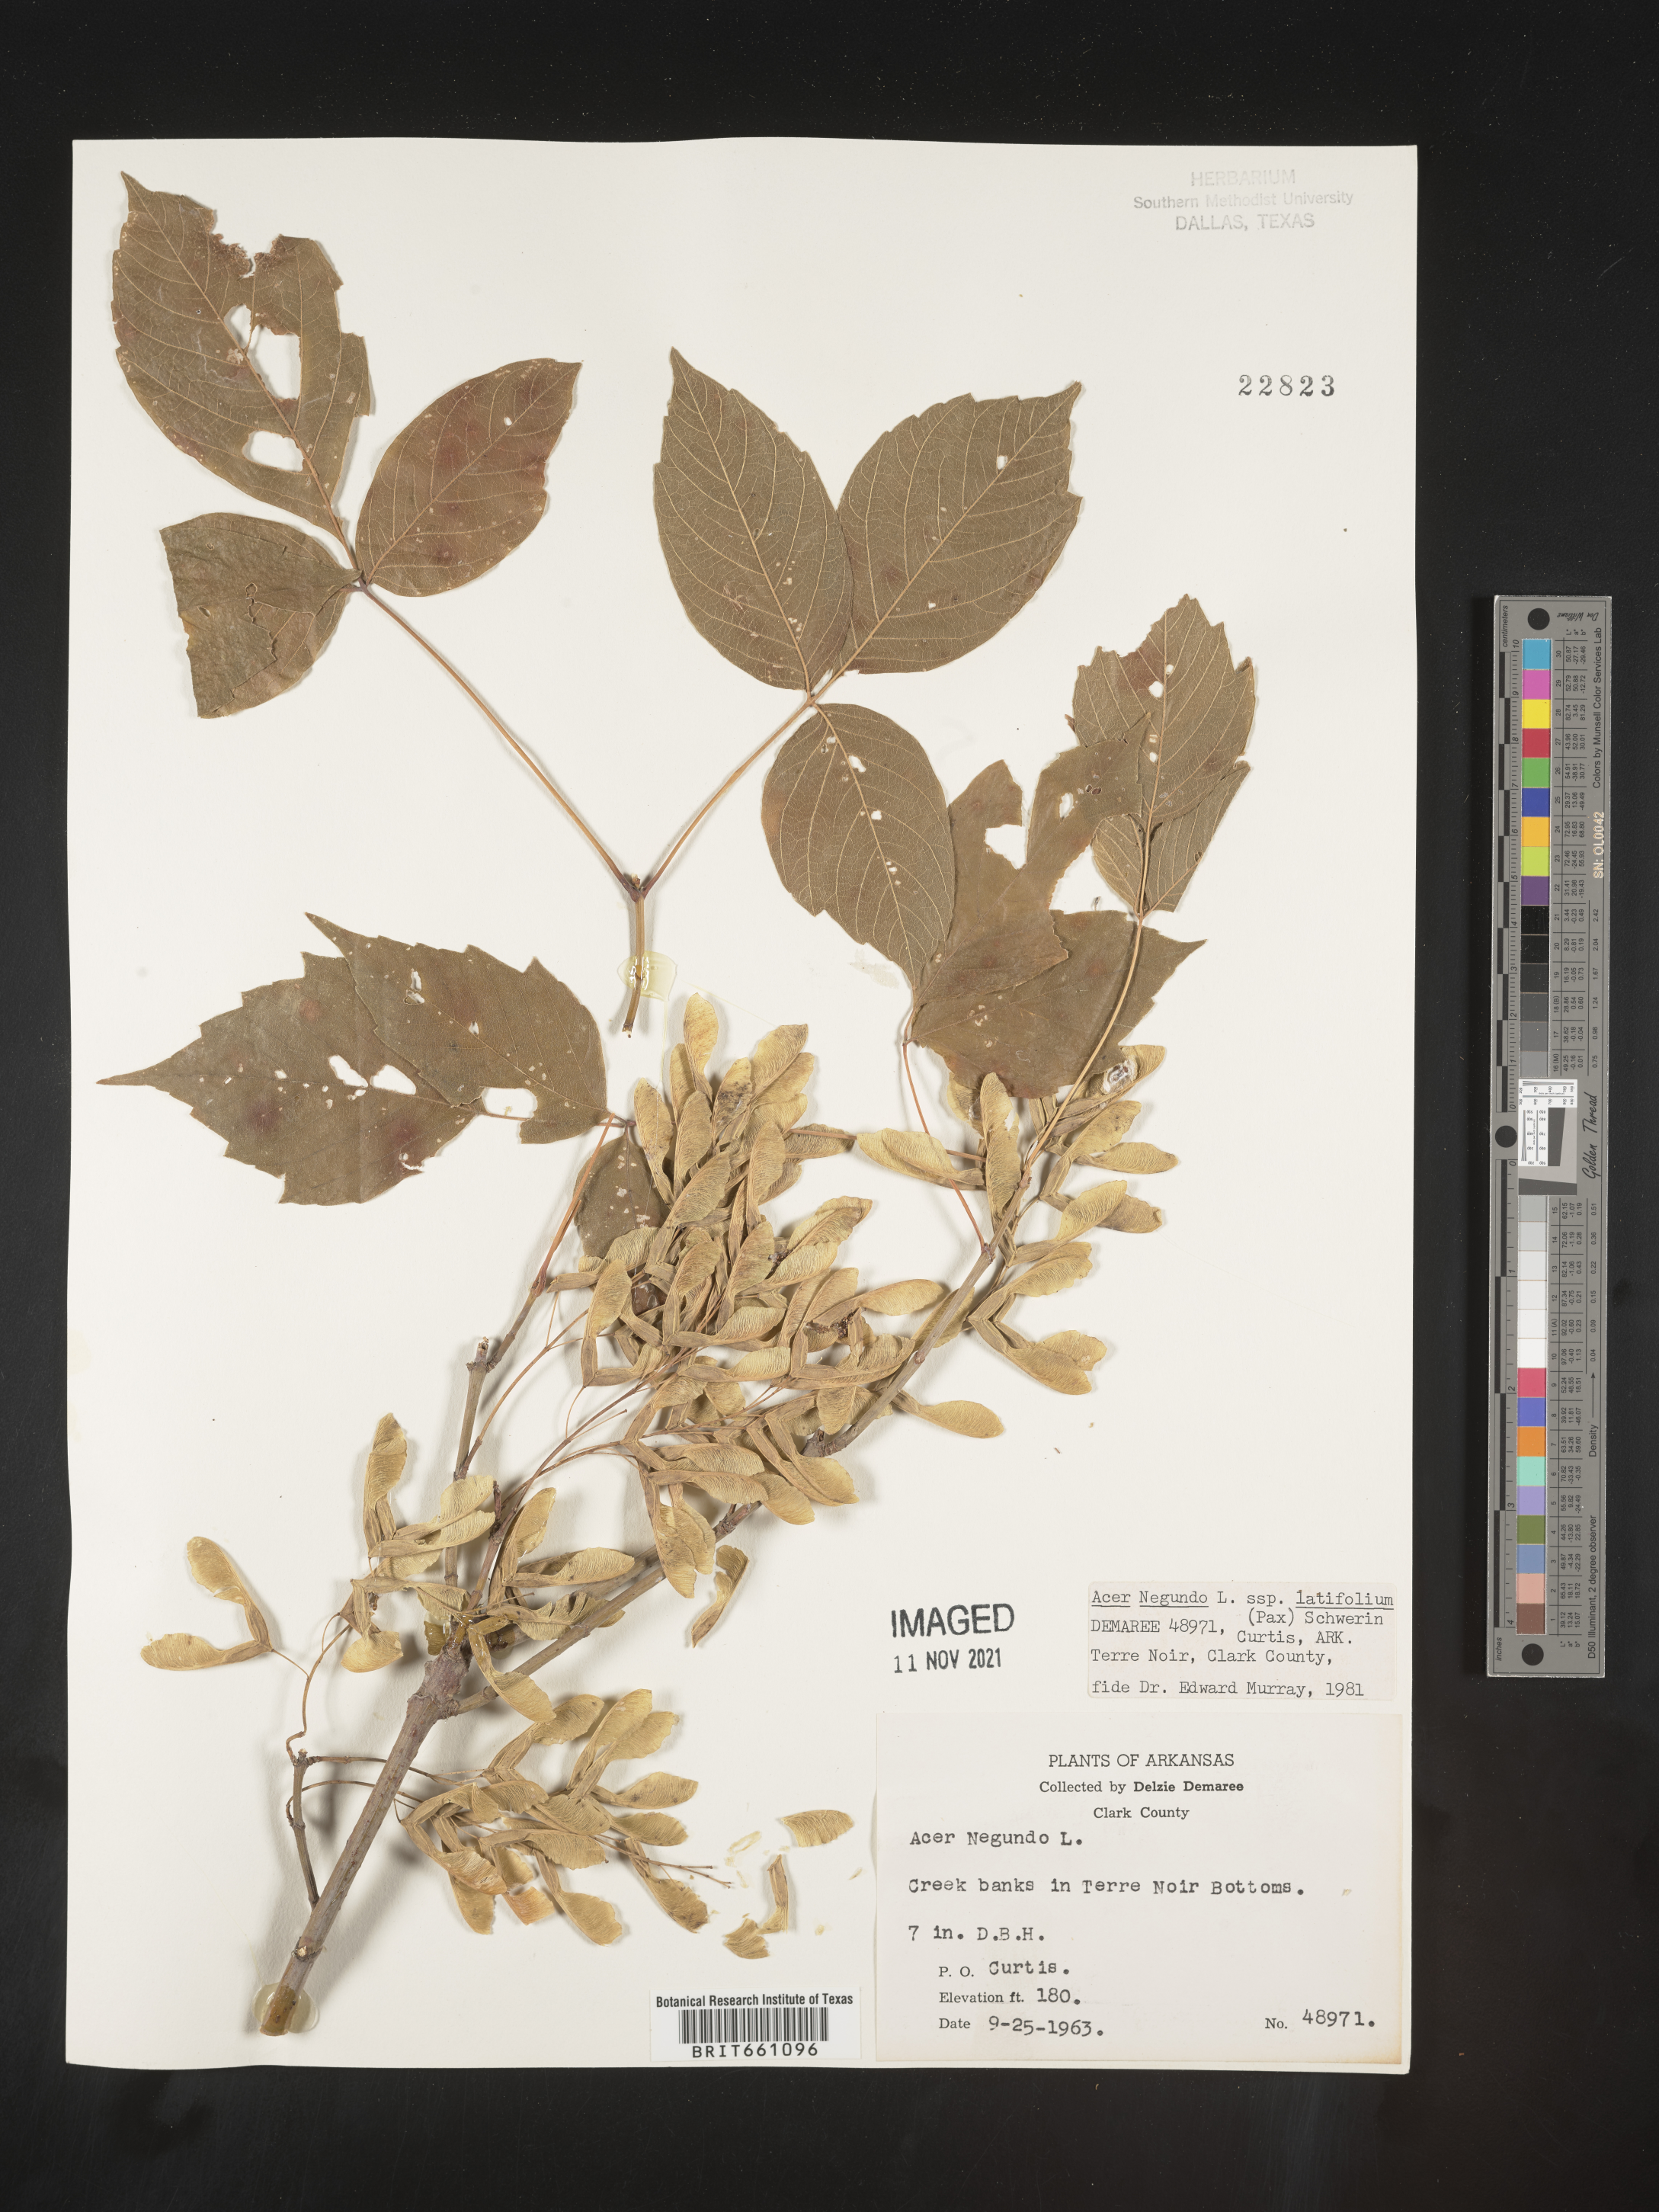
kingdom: Plantae
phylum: Tracheophyta
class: Magnoliopsida
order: Sapindales
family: Sapindaceae
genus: Acer
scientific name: Acer negundo
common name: Ashleaf maple
